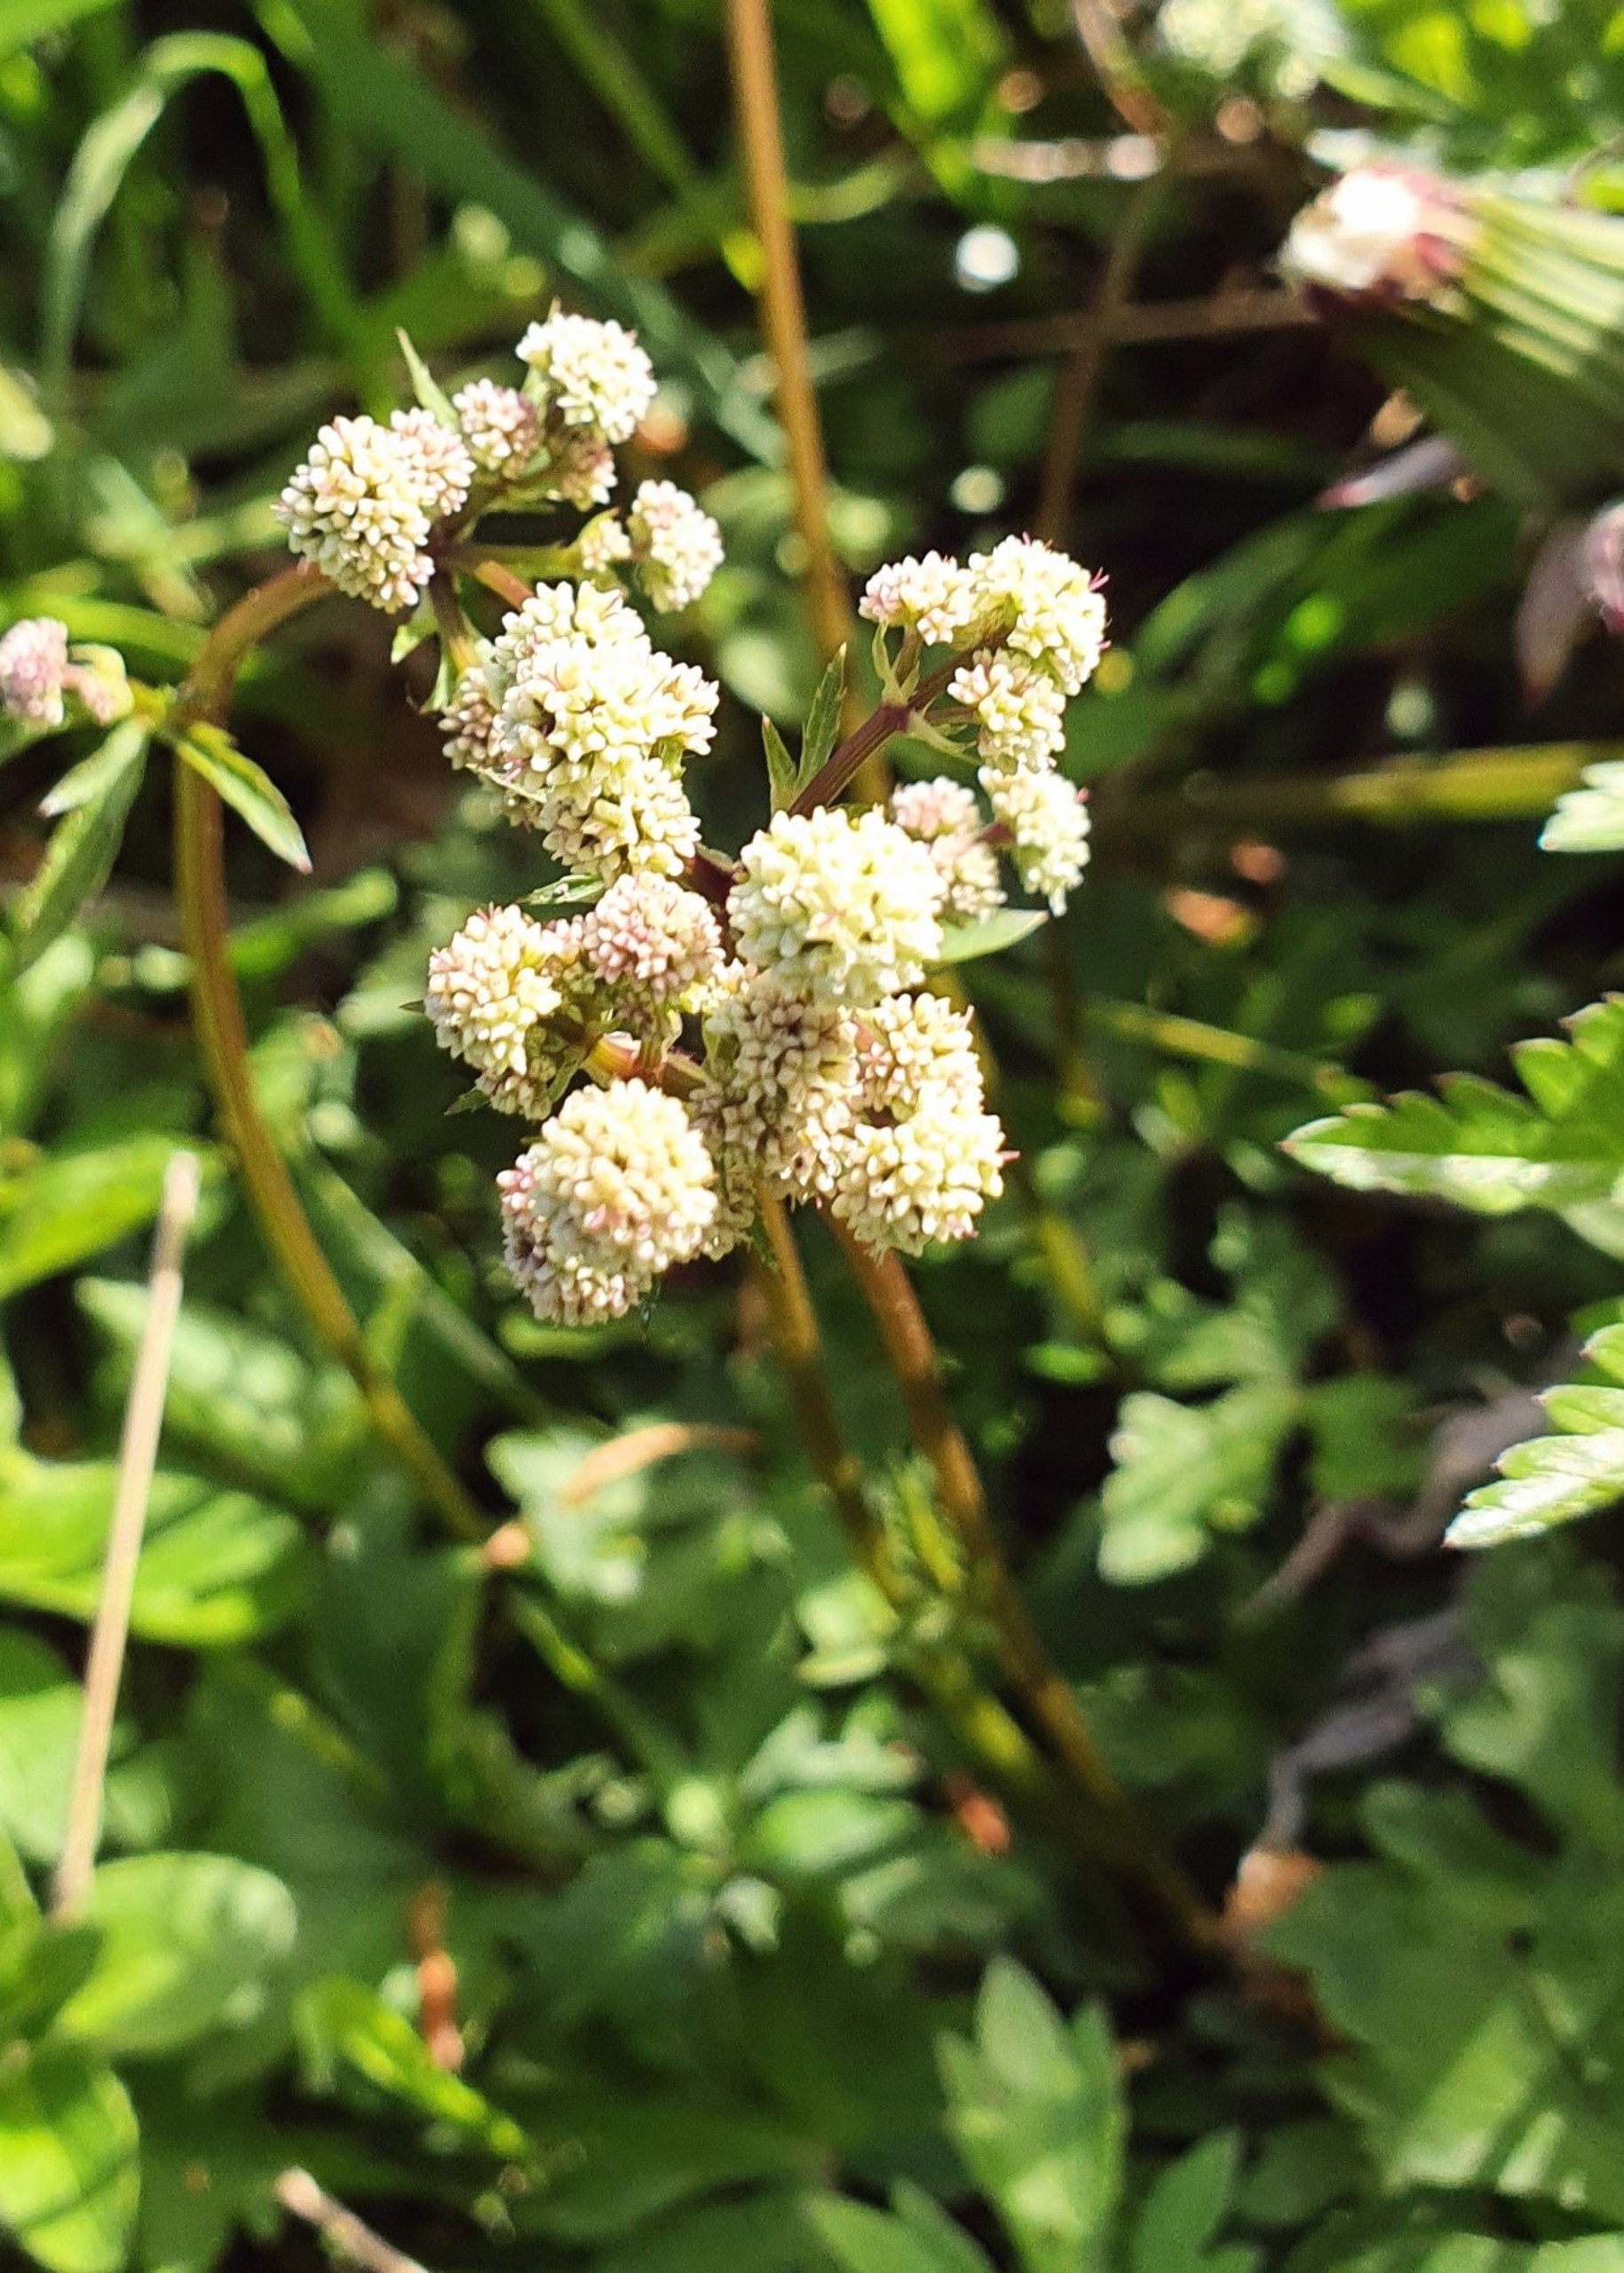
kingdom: Plantae
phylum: Tracheophyta
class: Magnoliopsida
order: Apiales
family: Apiaceae
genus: Sanicula
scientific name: Sanicula europaea
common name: Sanikel
